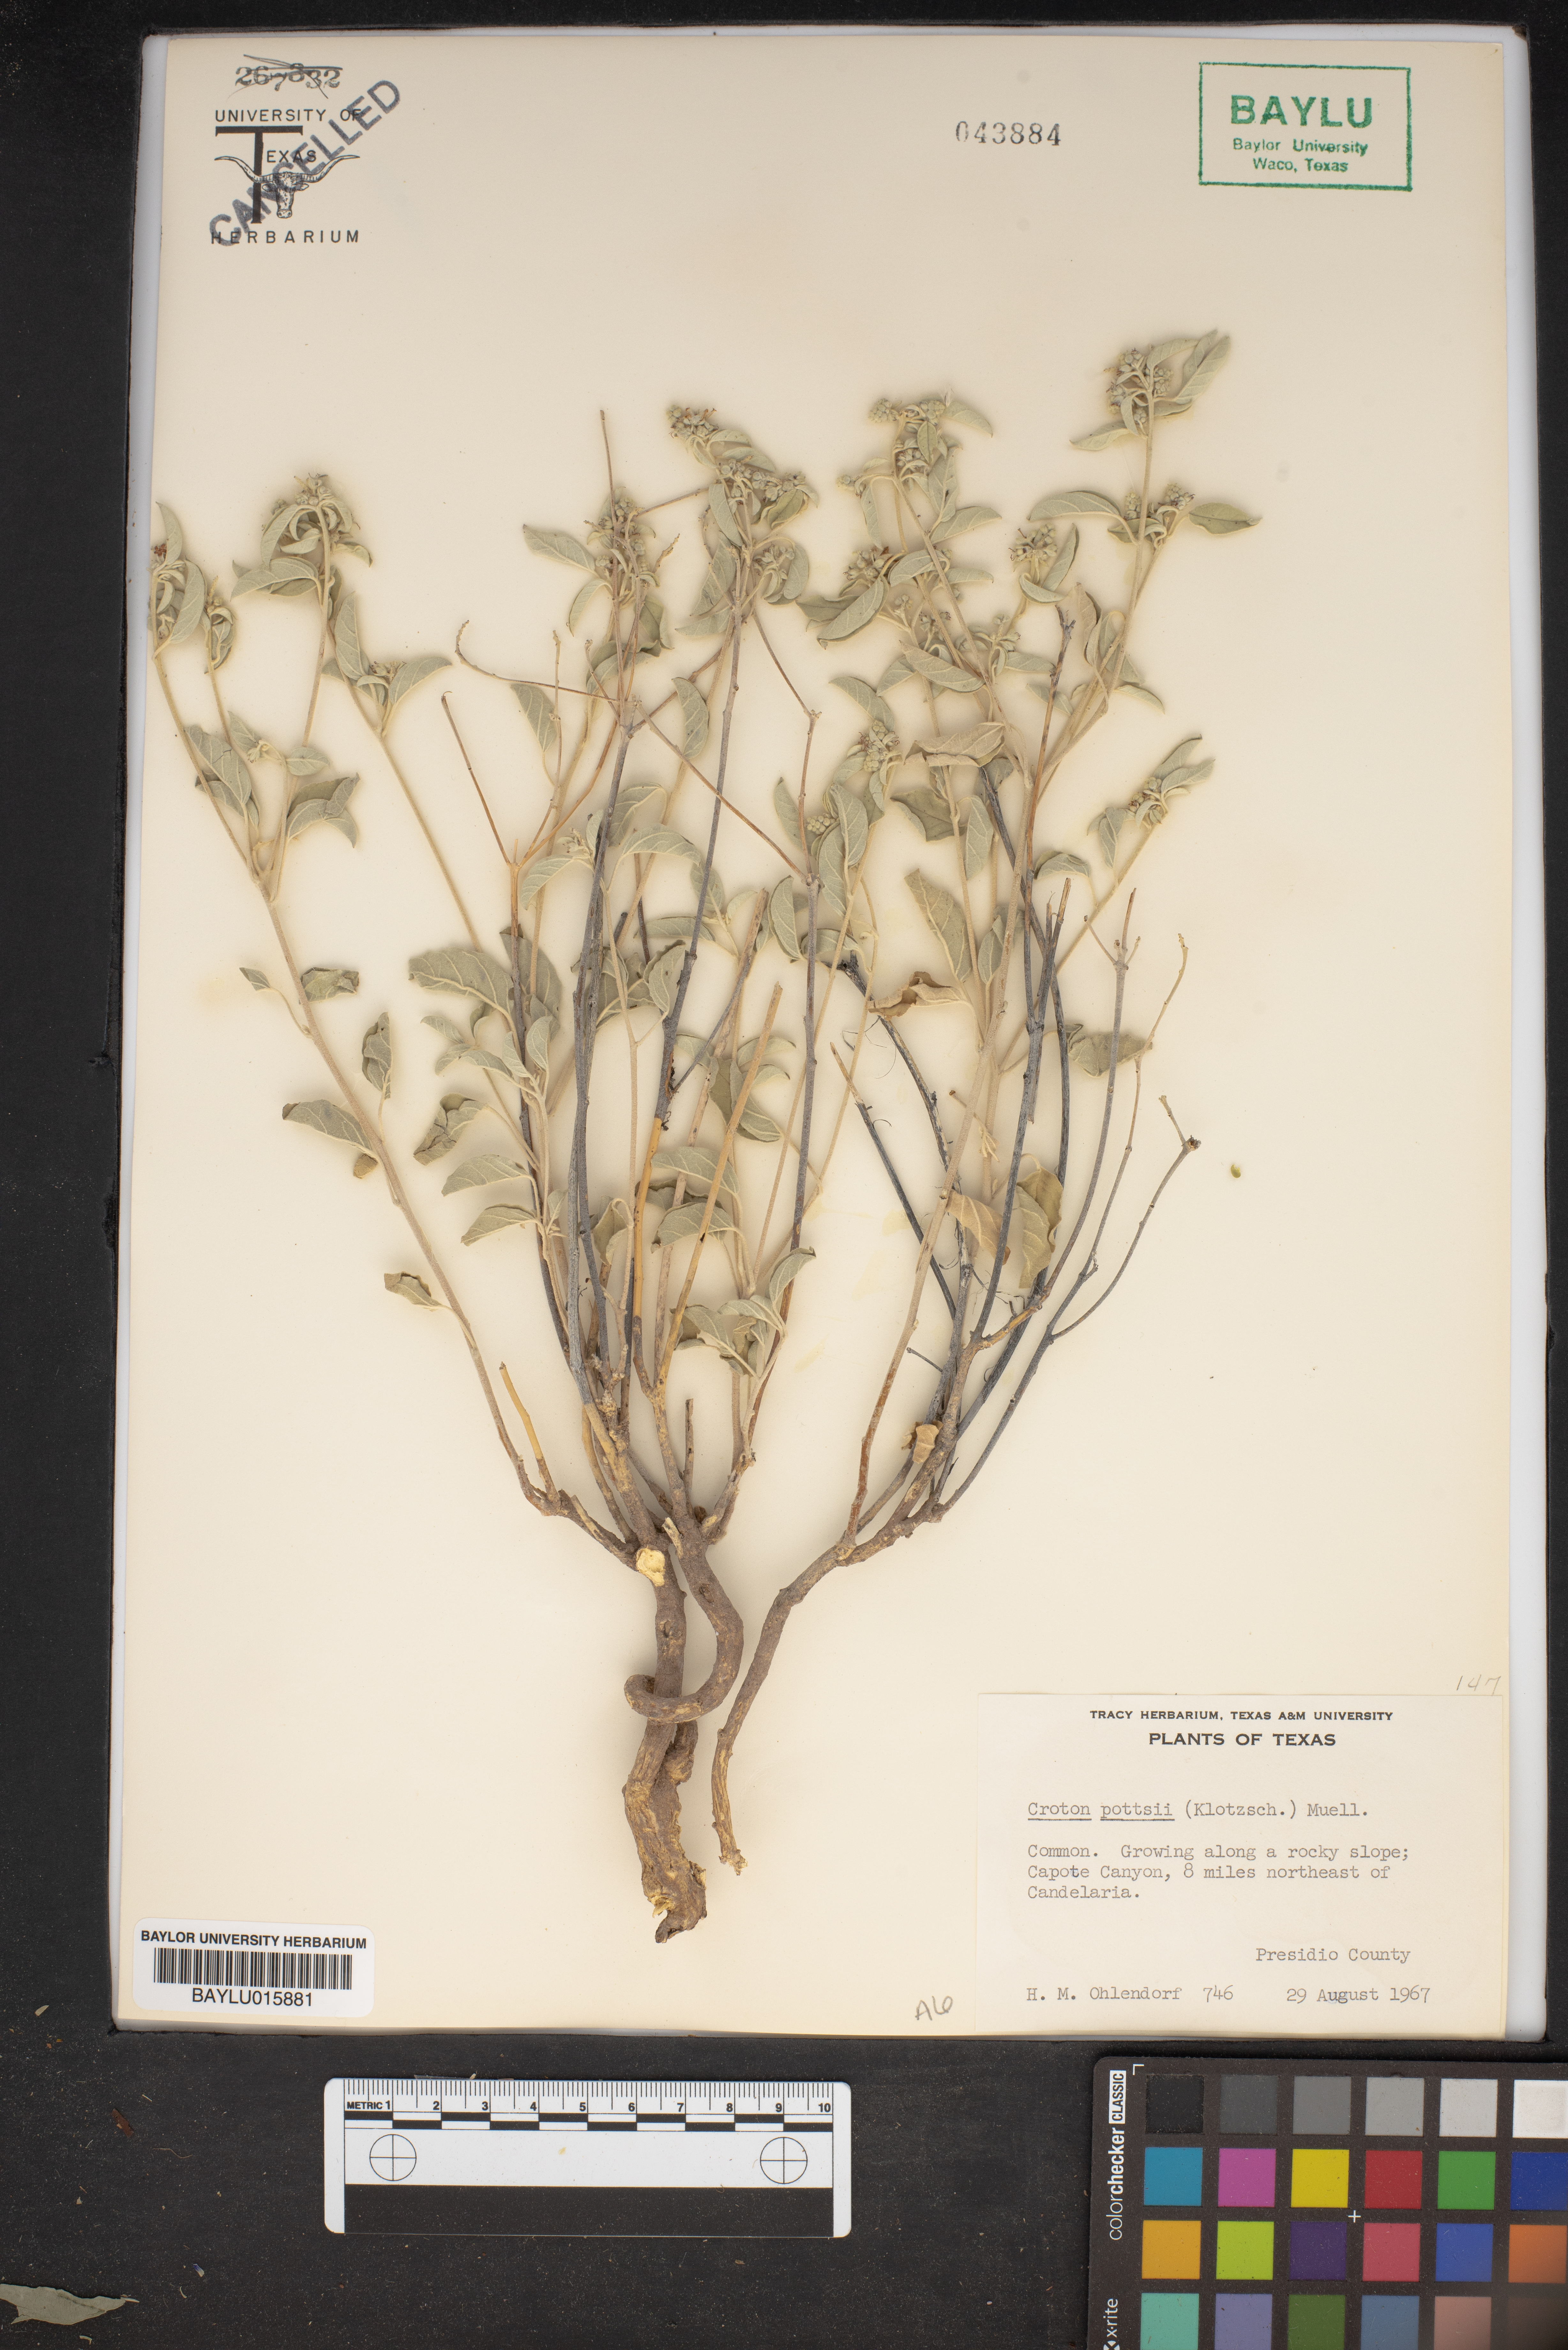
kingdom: Plantae
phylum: Tracheophyta
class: Magnoliopsida
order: Malpighiales
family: Euphorbiaceae
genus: Croton
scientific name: Croton pottsii
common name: Leatherweed
